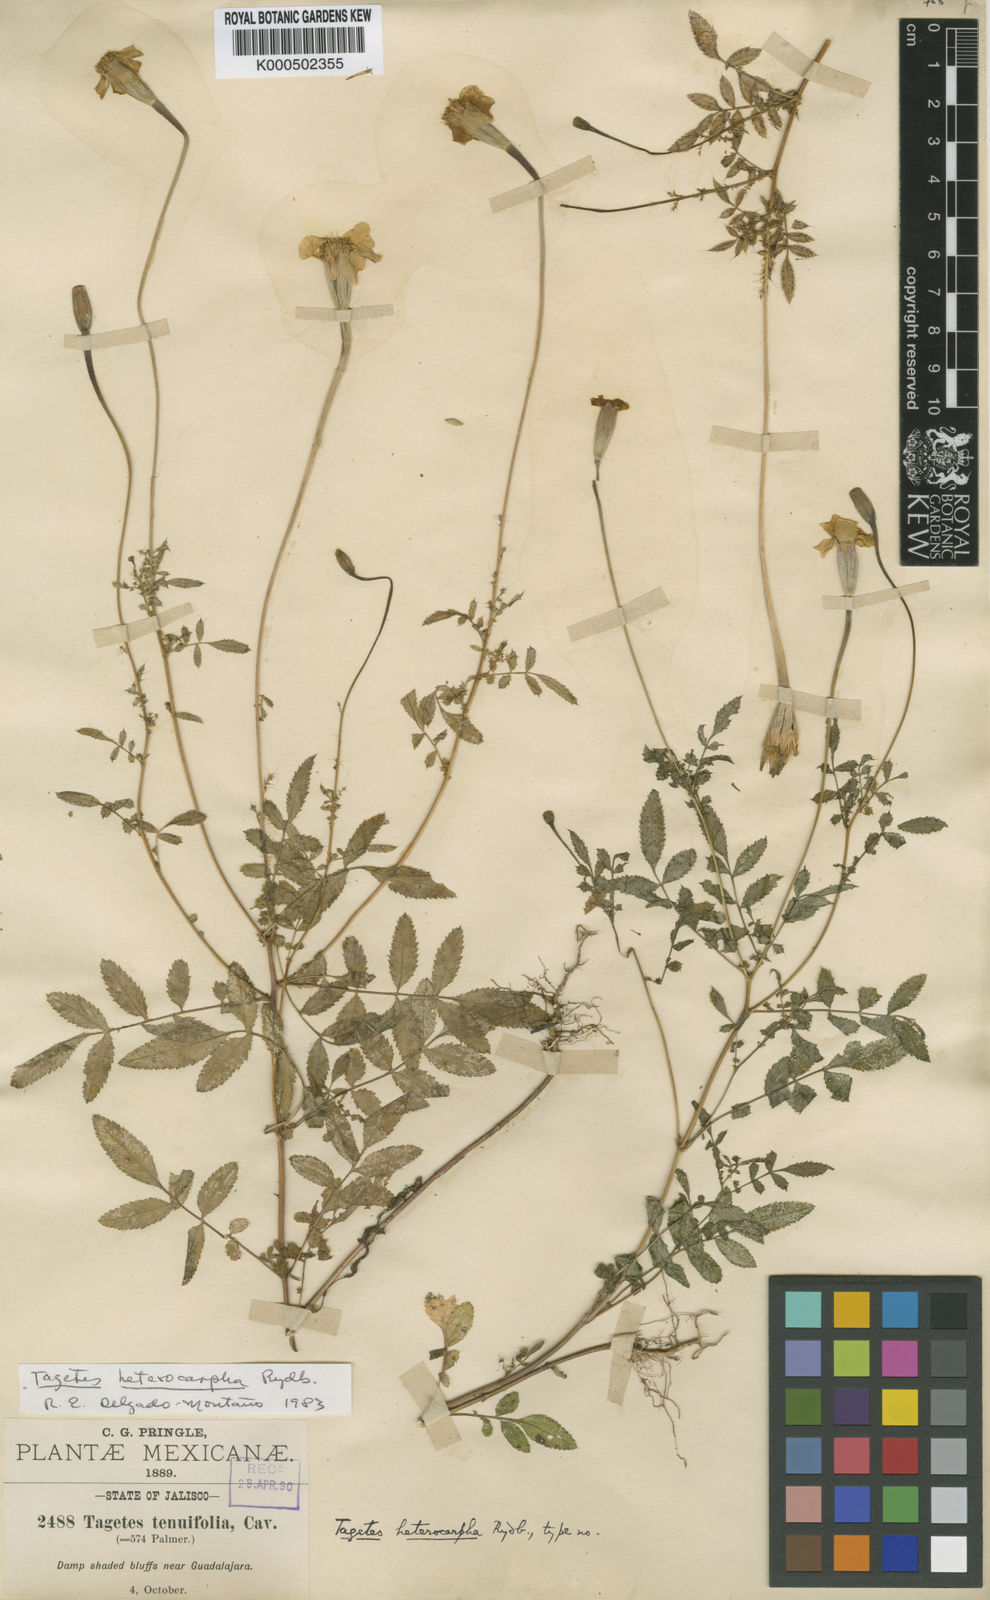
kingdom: Plantae
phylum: Tracheophyta
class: Magnoliopsida
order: Asterales
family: Asteraceae
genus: Tagetes
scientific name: Tagetes erecta
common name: African marigold
